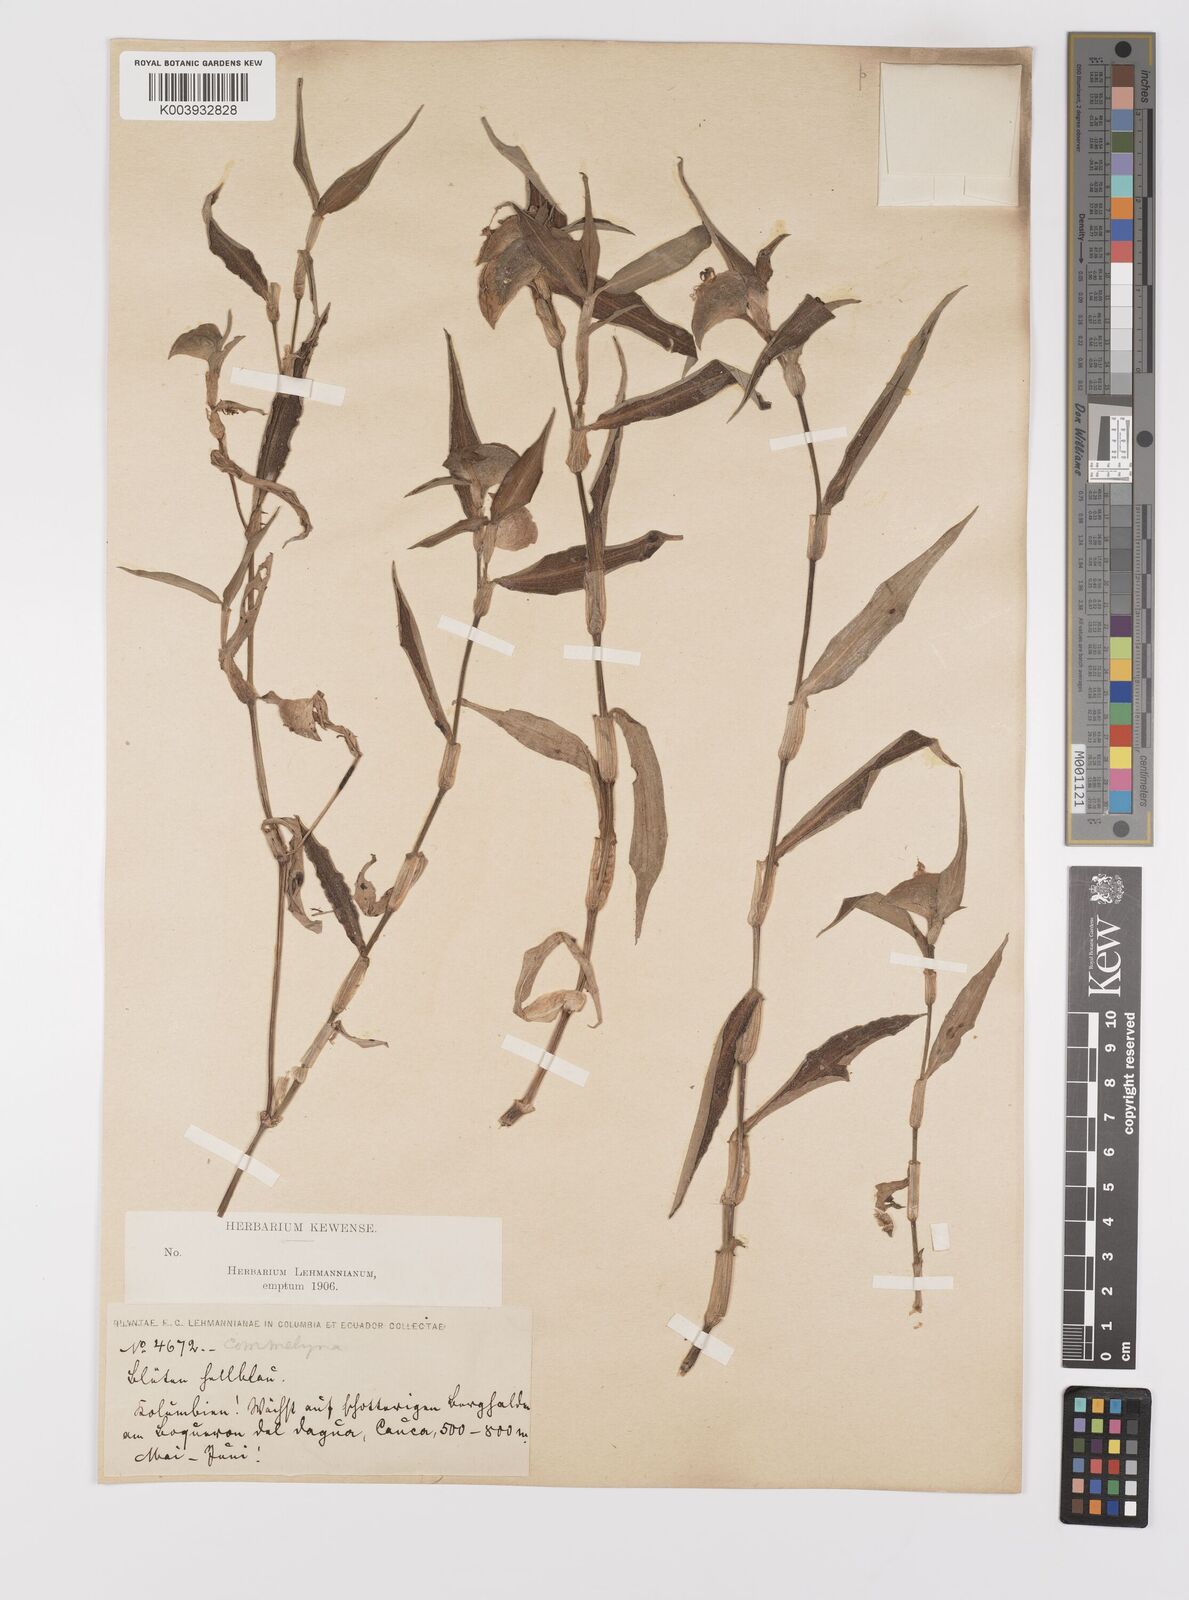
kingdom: Plantae
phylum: Tracheophyta
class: Liliopsida
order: Commelinales
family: Commelinaceae
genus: Commelina
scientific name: Commelina
